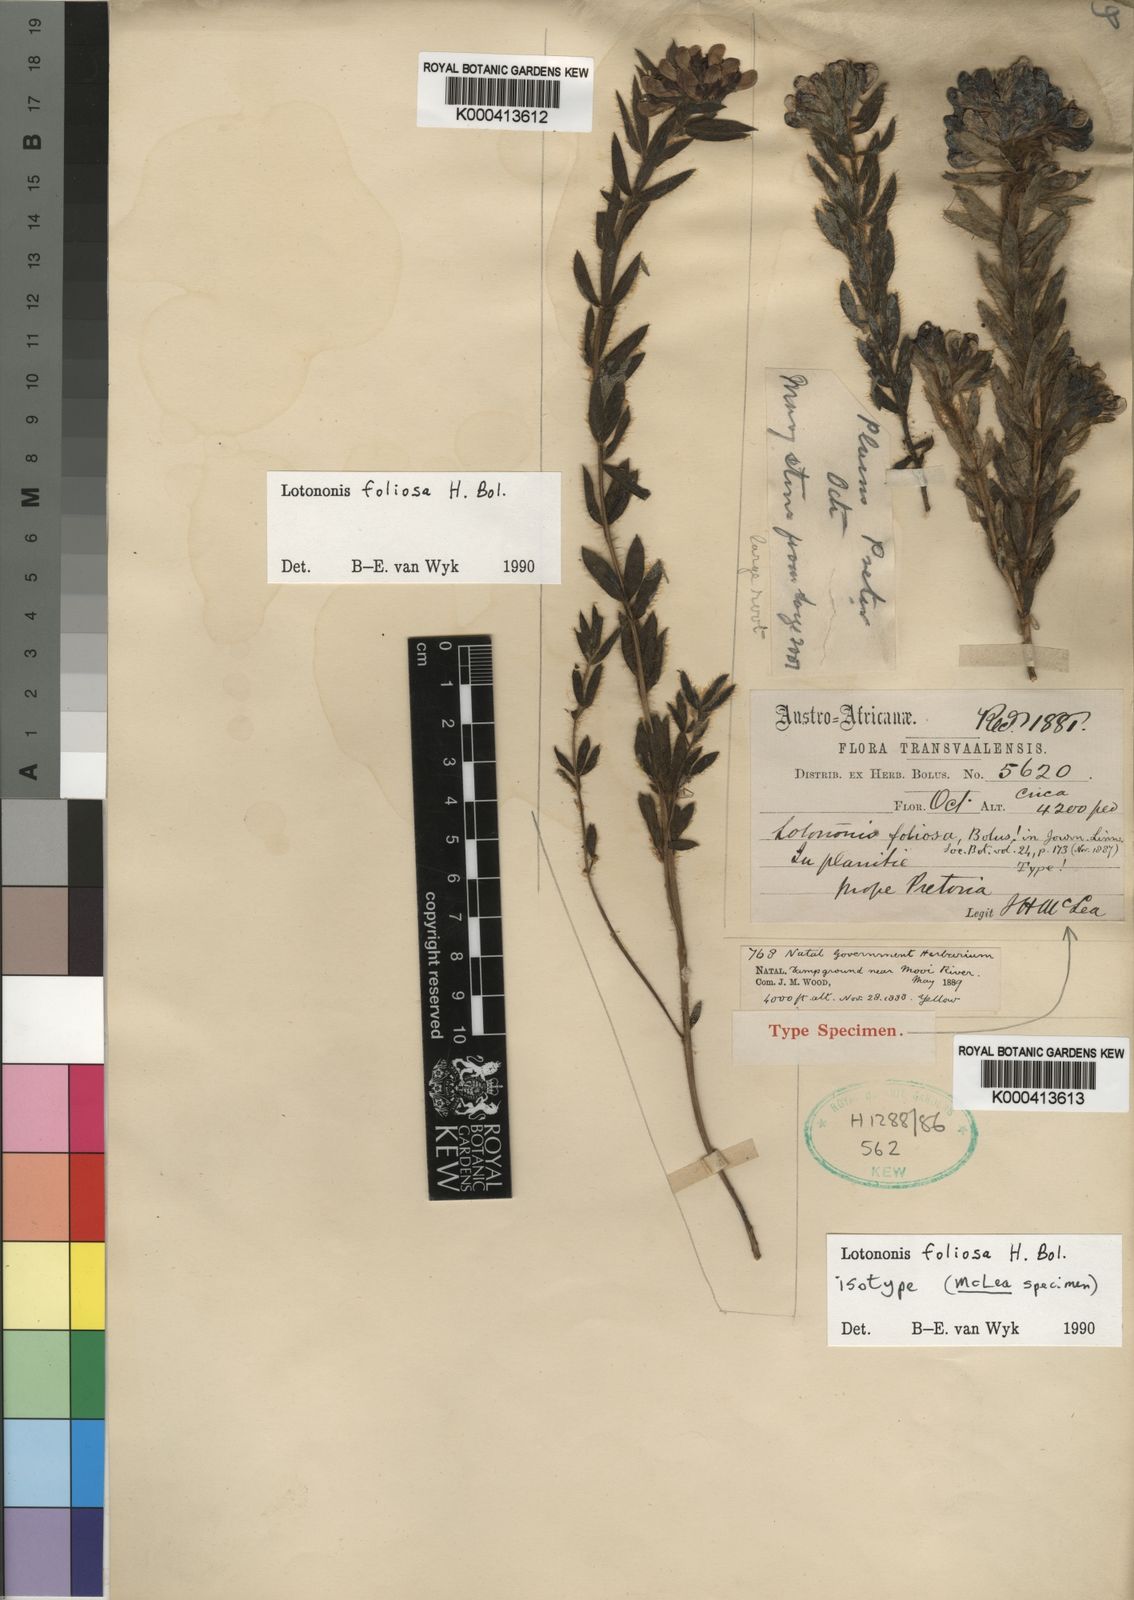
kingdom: Plantae
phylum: Tracheophyta
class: Magnoliopsida
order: Fabales
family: Fabaceae
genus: Leobordea
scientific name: Leobordea foliosa
